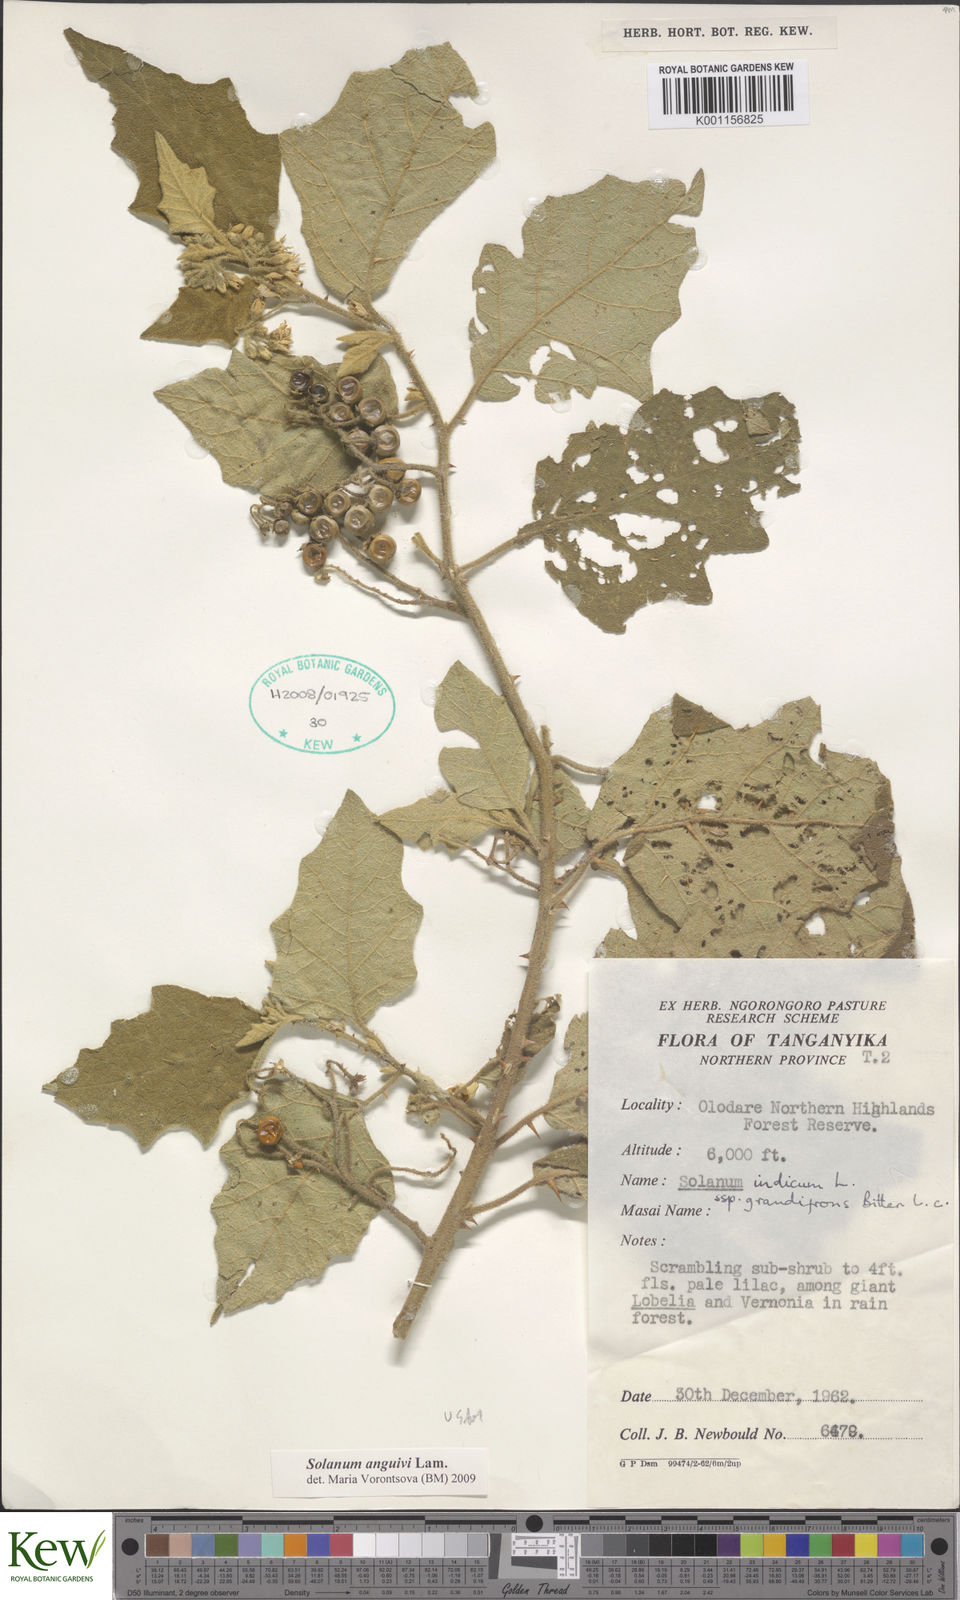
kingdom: Plantae
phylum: Tracheophyta
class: Magnoliopsida
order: Solanales
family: Solanaceae
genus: Solanum
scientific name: Solanum anguivi
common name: Forest bitterberry
